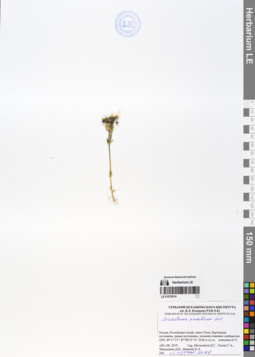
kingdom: Plantae
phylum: Tracheophyta
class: Magnoliopsida
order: Caryophyllales
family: Caryophyllaceae
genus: Cerastium
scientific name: Cerastium pusillum
